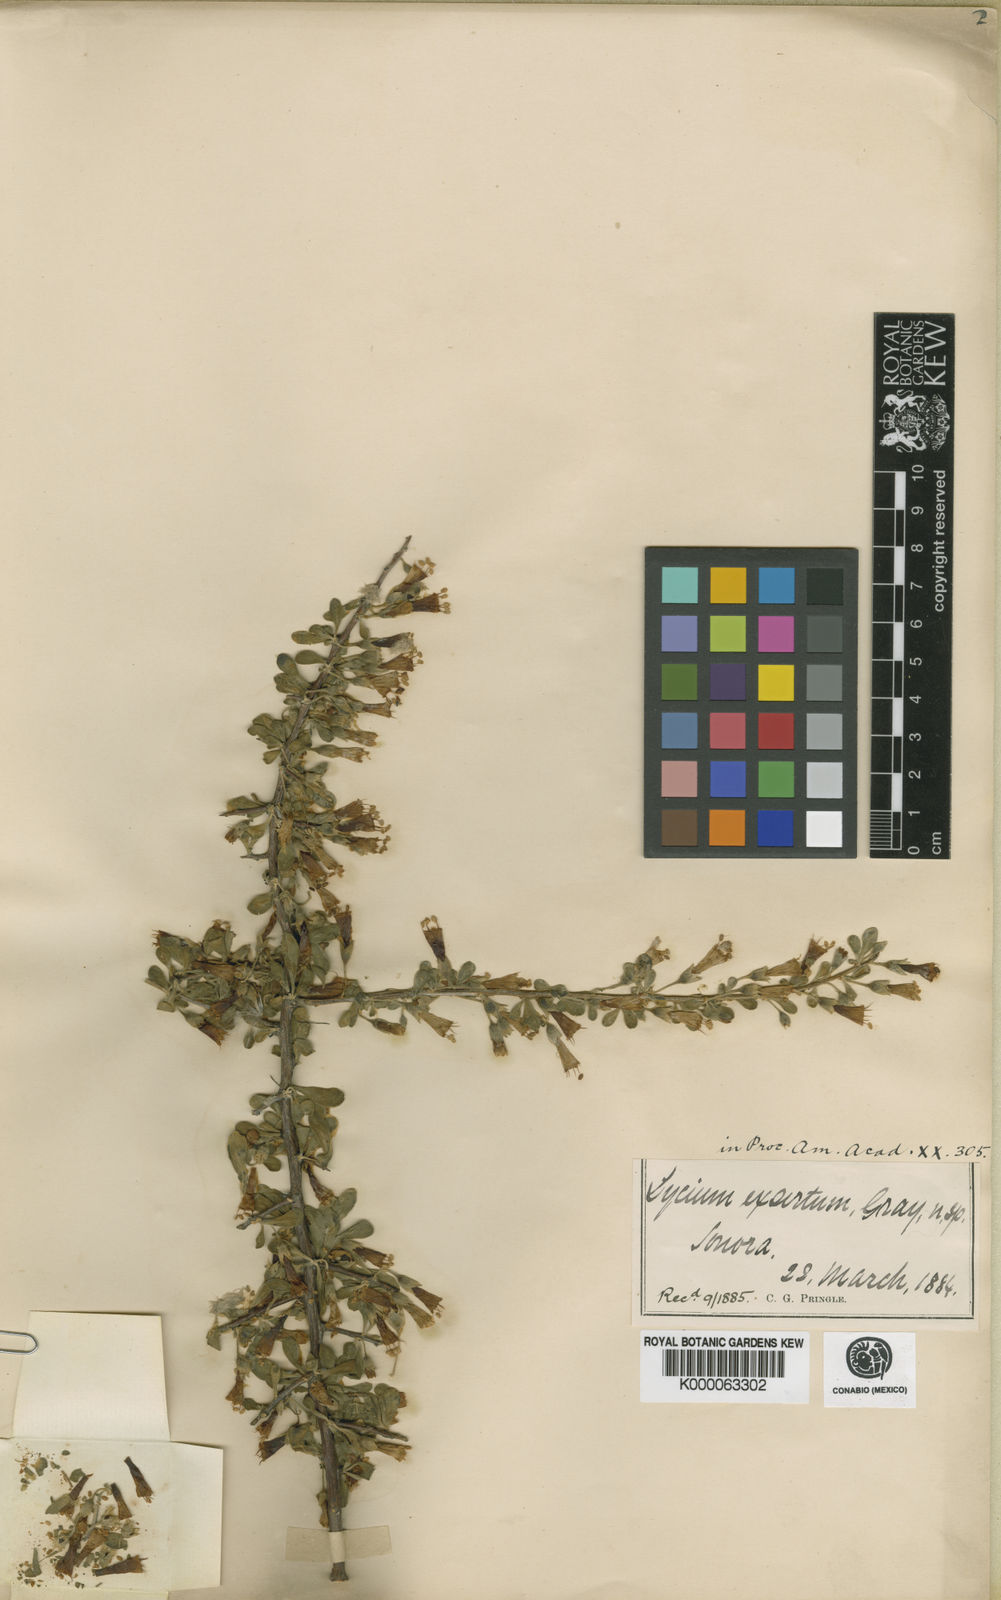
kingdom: Plantae
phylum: Tracheophyta
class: Magnoliopsida
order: Solanales
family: Solanaceae
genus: Lycium
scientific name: Lycium exsertum
